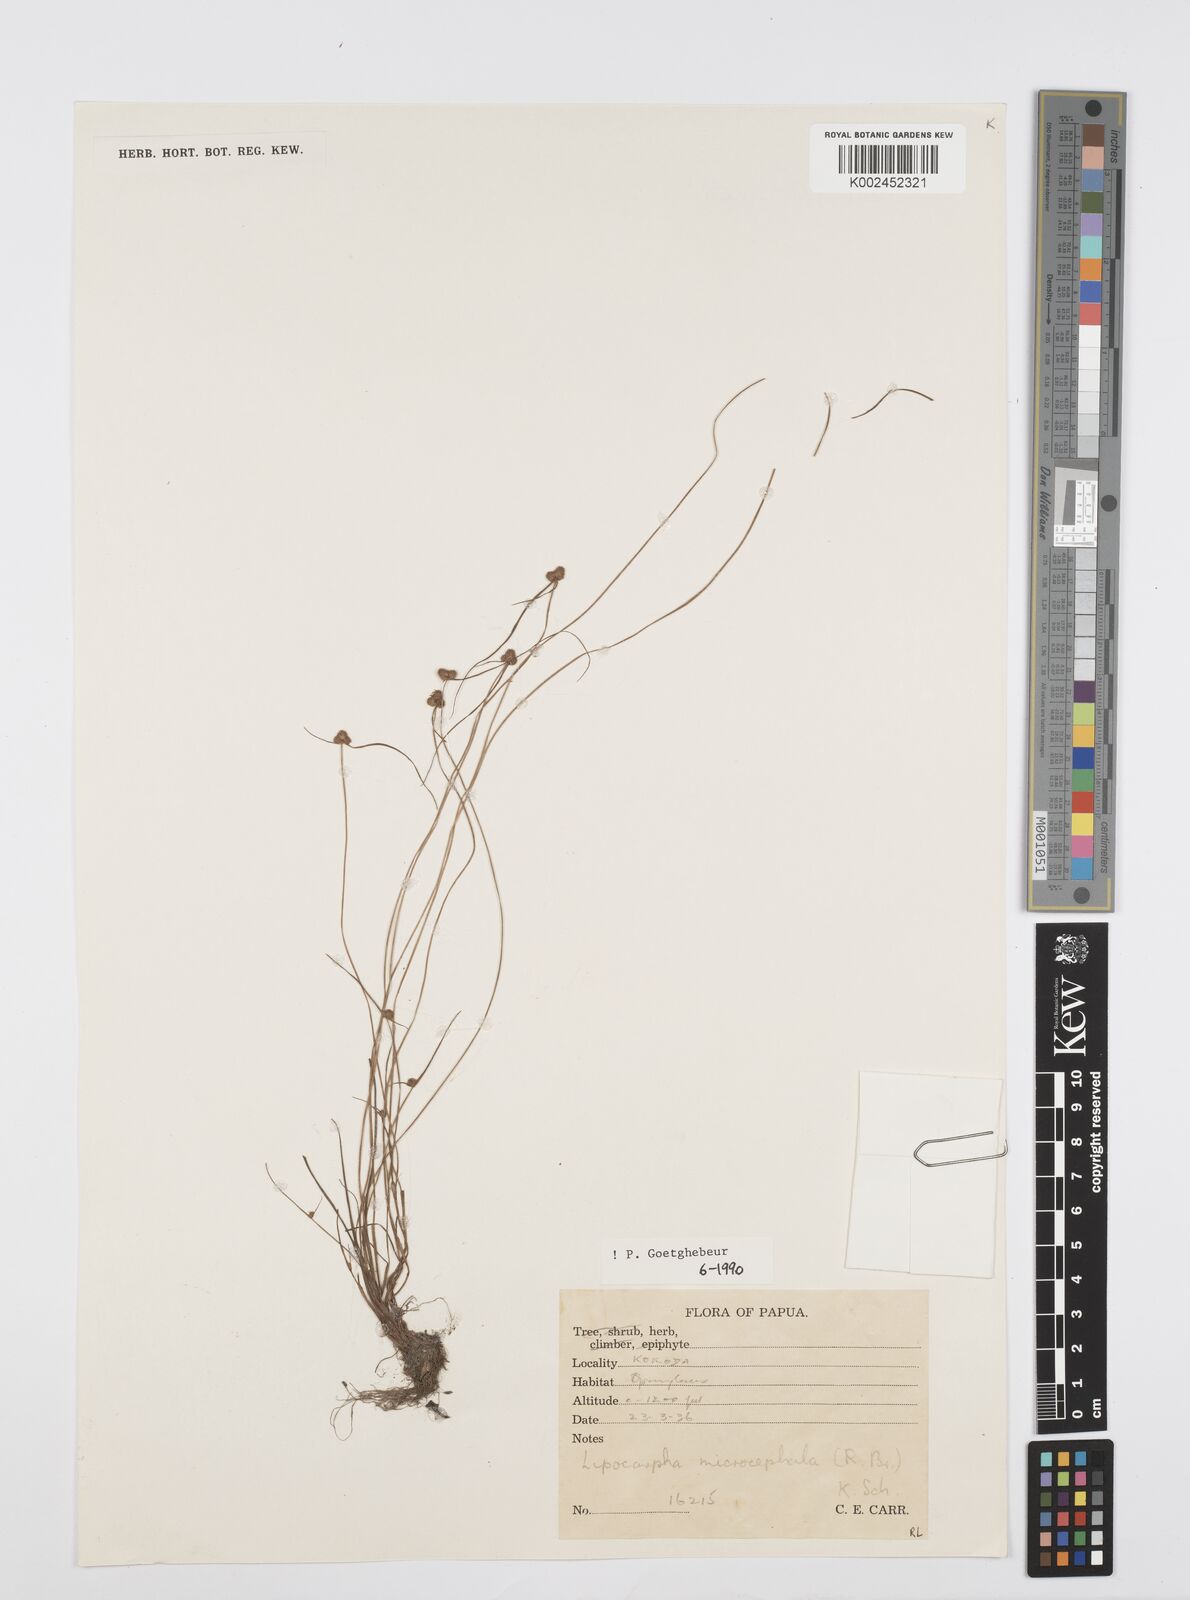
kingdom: Plantae
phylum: Tracheophyta
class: Liliopsida
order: Poales
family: Cyperaceae
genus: Cyperus
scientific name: Cyperus microcephalus
